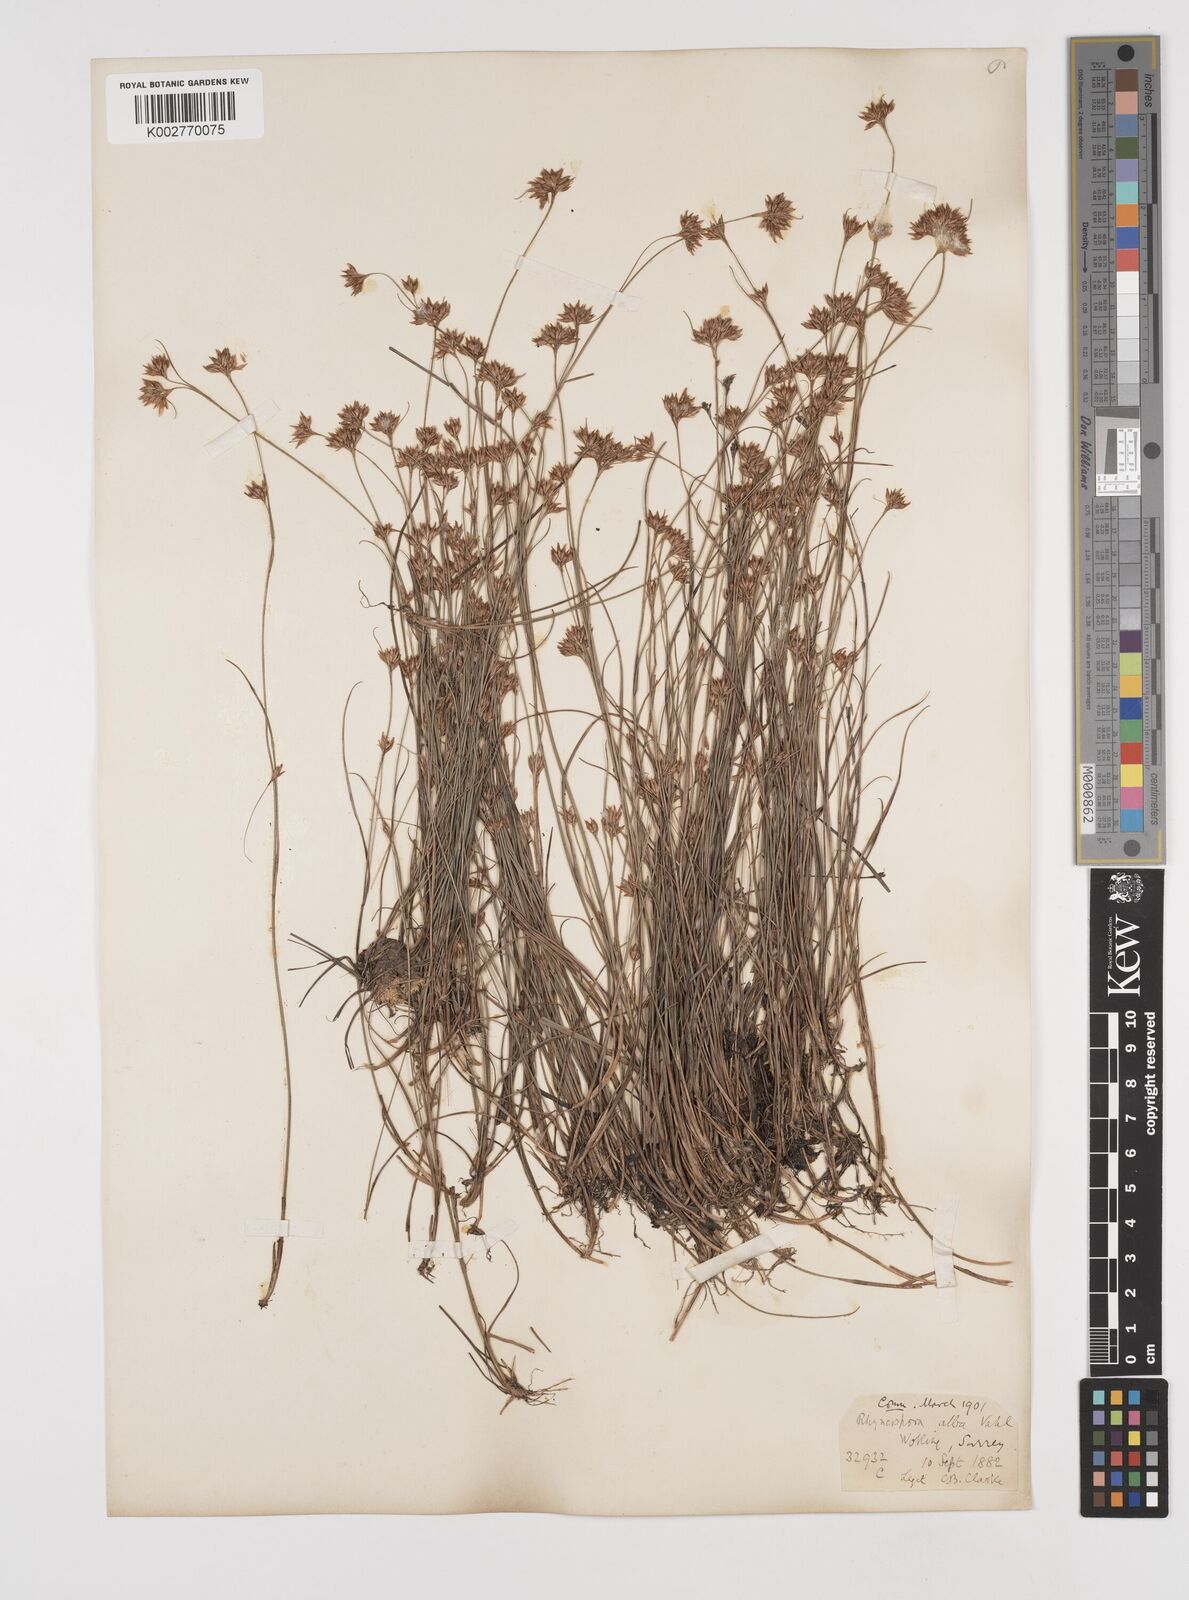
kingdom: Plantae
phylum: Tracheophyta
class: Liliopsida
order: Poales
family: Cyperaceae
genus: Rhynchospora
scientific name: Rhynchospora alba
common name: White beak-sedge
